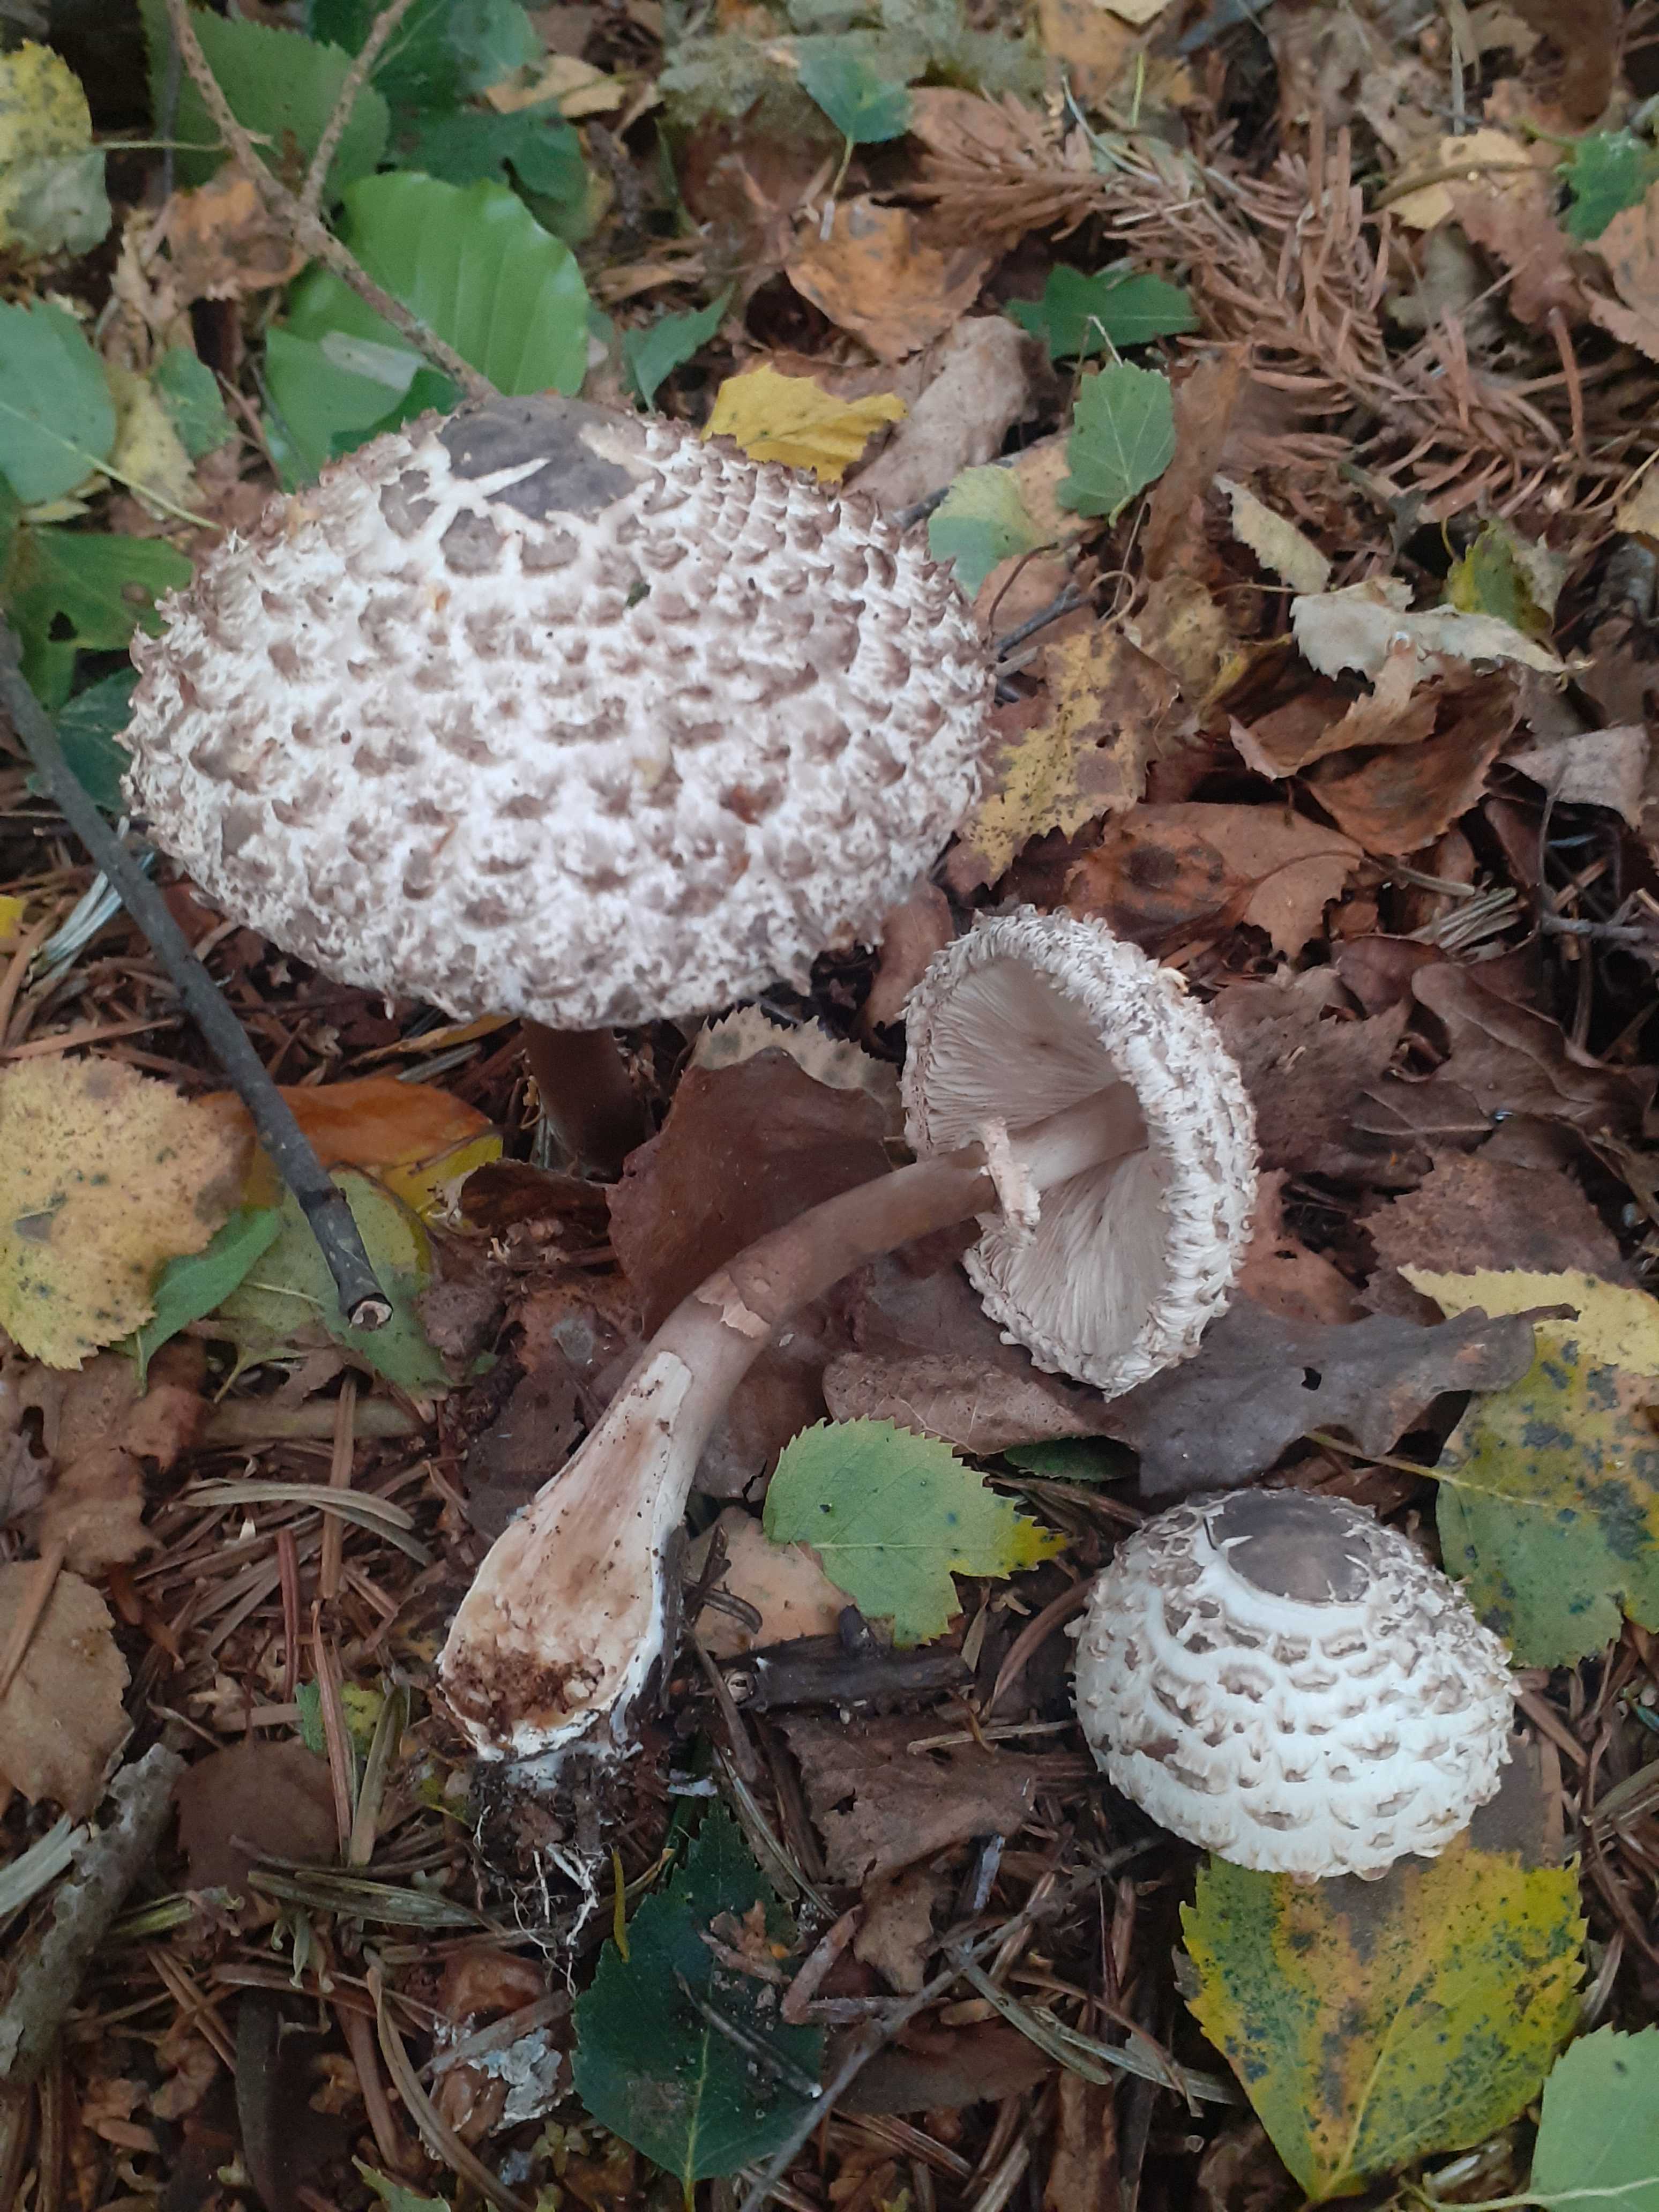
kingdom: Fungi
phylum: Basidiomycota
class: Agaricomycetes
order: Agaricales
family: Agaricaceae
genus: Chlorophyllum
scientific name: Chlorophyllum olivieri
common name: almindelig rabarberhat
